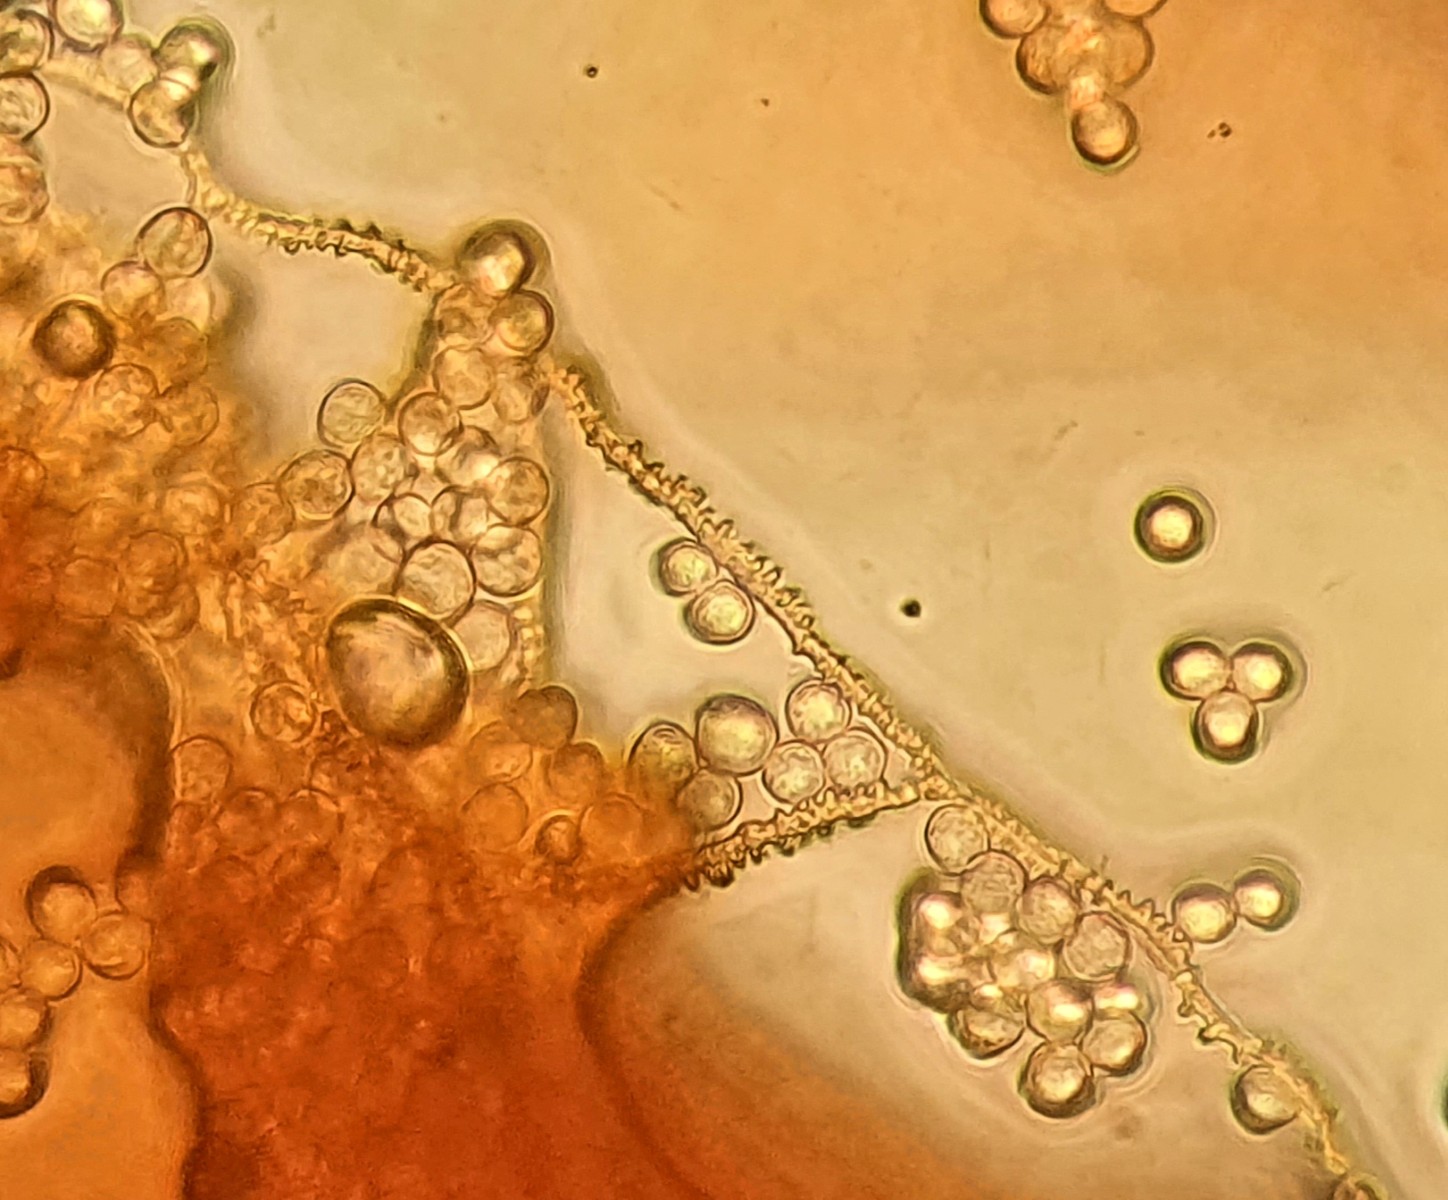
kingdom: Protozoa
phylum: Mycetozoa
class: Myxomycetes
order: Trichiales
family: Arcyriaceae
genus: Arcyria
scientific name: Arcyria denudata
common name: karminrød skålsvøb
